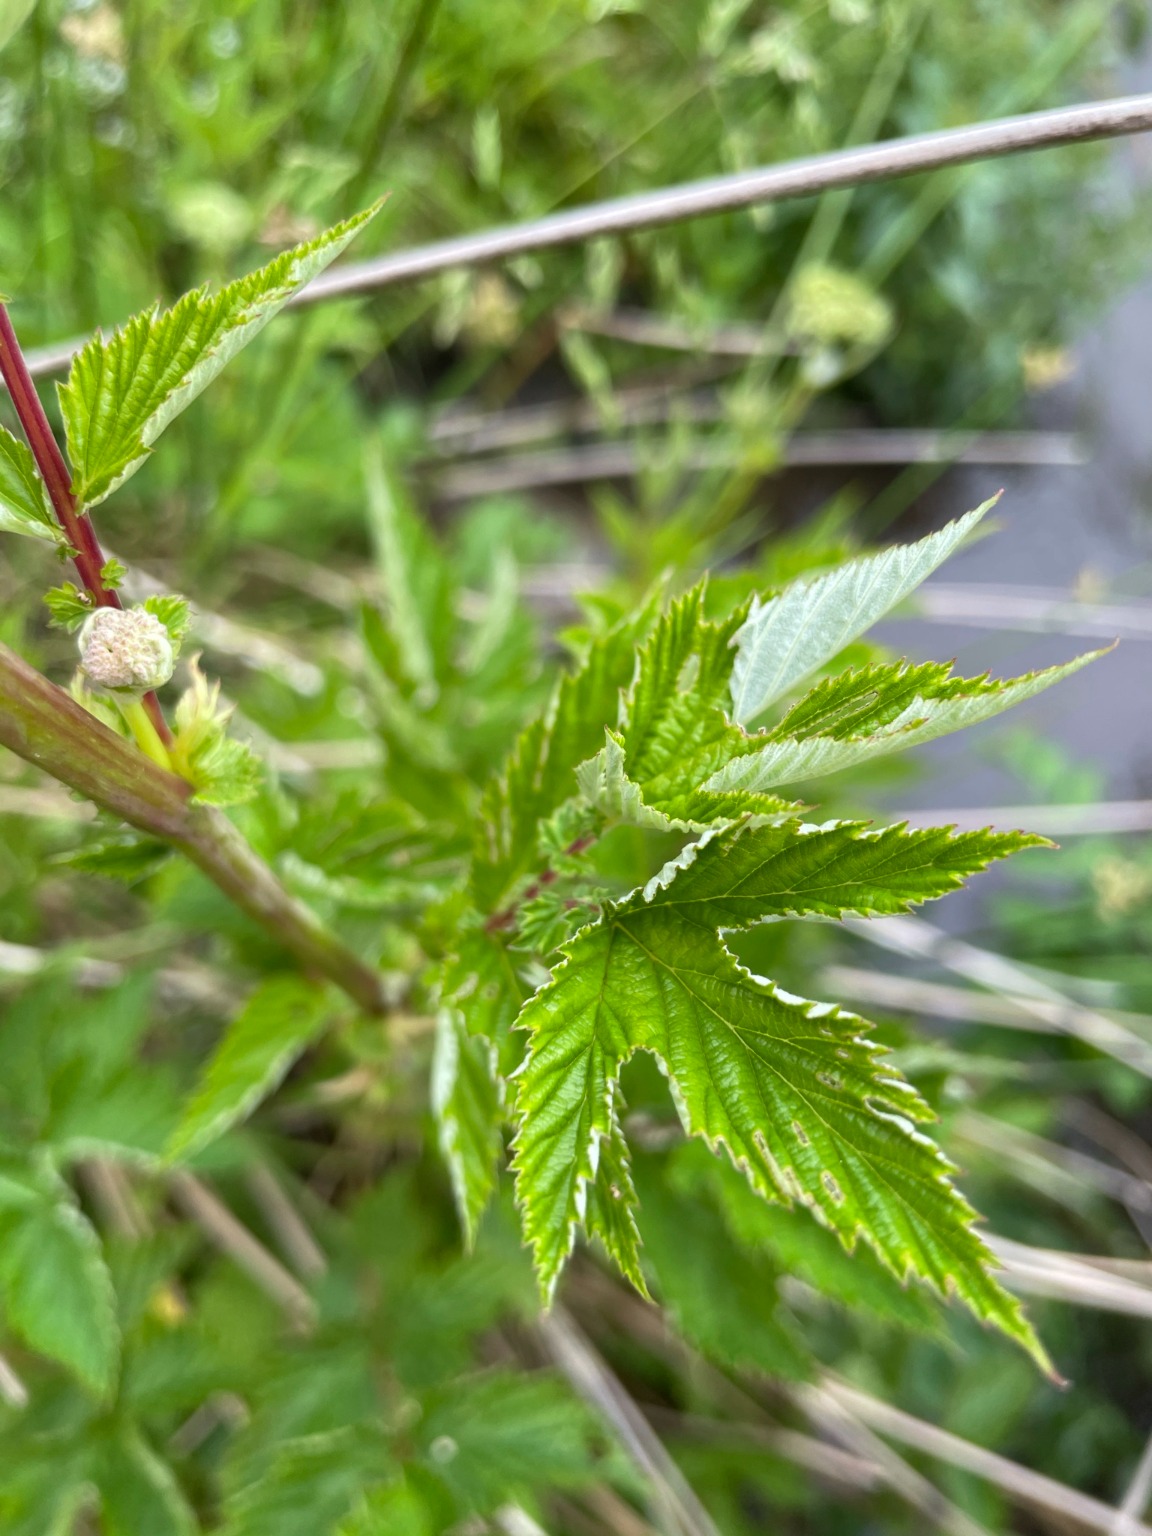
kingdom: Plantae
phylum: Tracheophyta
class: Magnoliopsida
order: Rosales
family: Rosaceae
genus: Filipendula
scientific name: Filipendula ulmaria
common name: Almindelig mjødurt
